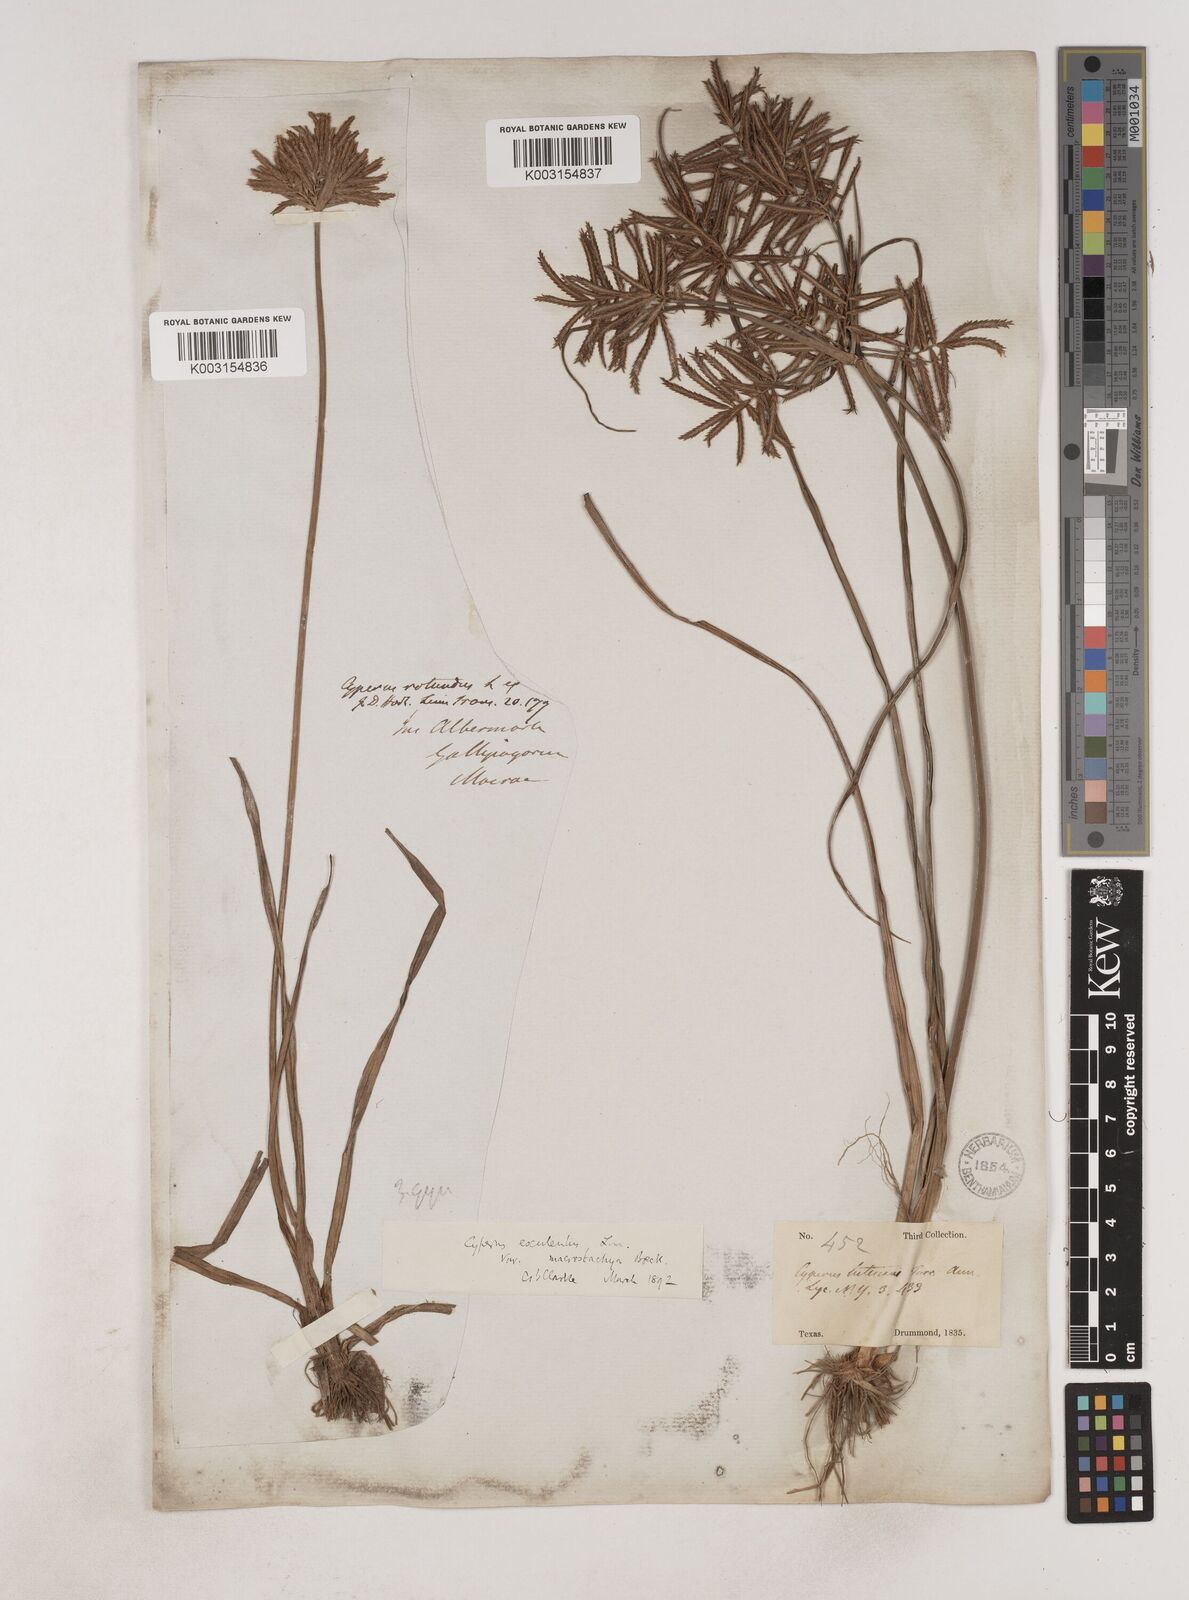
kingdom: Plantae
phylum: Tracheophyta
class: Liliopsida
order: Poales
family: Cyperaceae
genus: Cyperus
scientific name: Cyperus esculentus
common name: Yellow nutsedge
